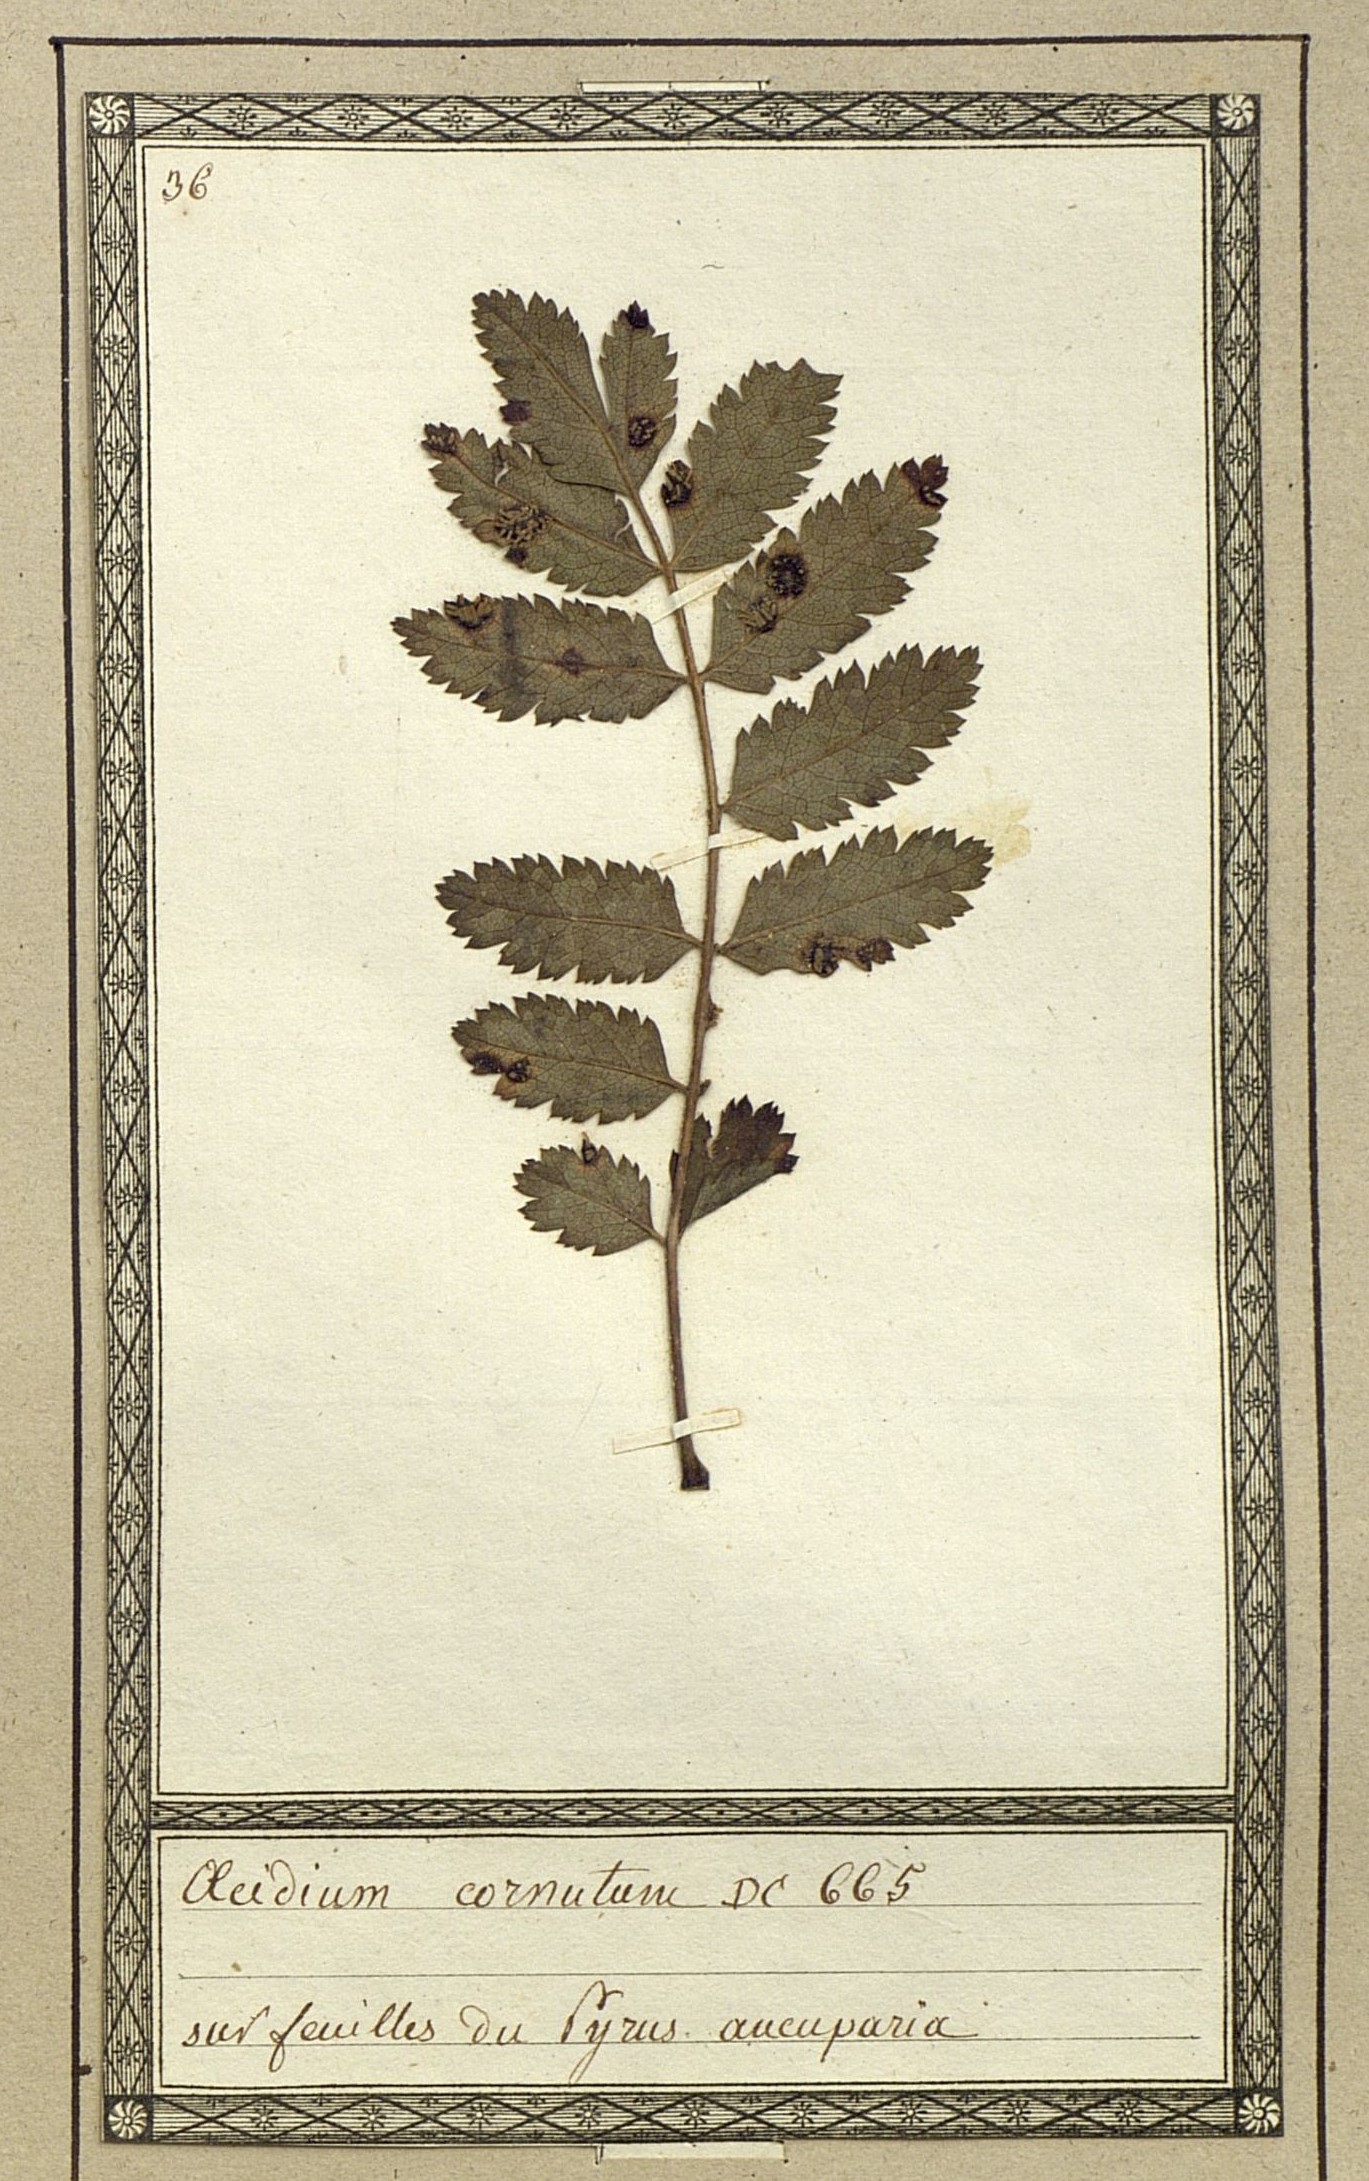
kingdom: Fungi
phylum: Basidiomycota
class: Pucciniomycetes
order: Pucciniales
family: Gymnosporangiaceae
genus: Gymnosporangium
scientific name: Gymnosporangium cornutum
